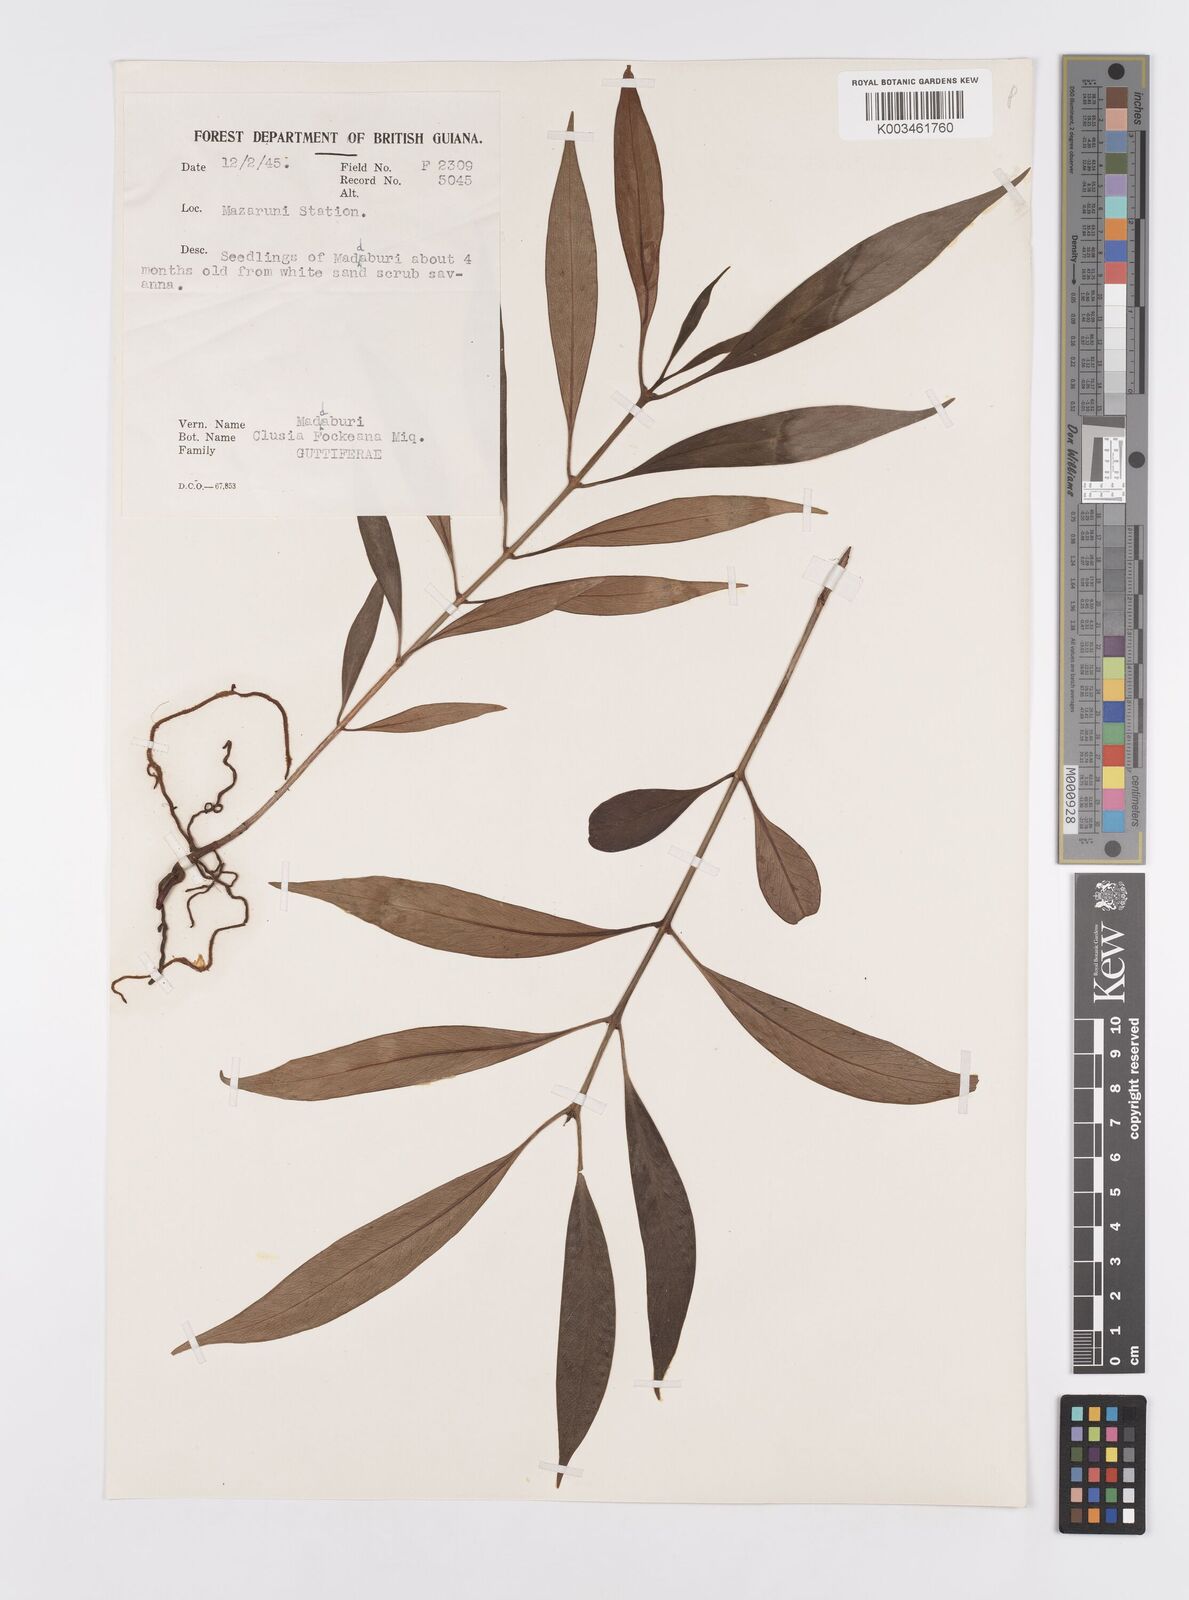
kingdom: Plantae
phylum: Tracheophyta
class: Magnoliopsida
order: Malpighiales
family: Clusiaceae
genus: Clusia
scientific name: Clusia fockeana
